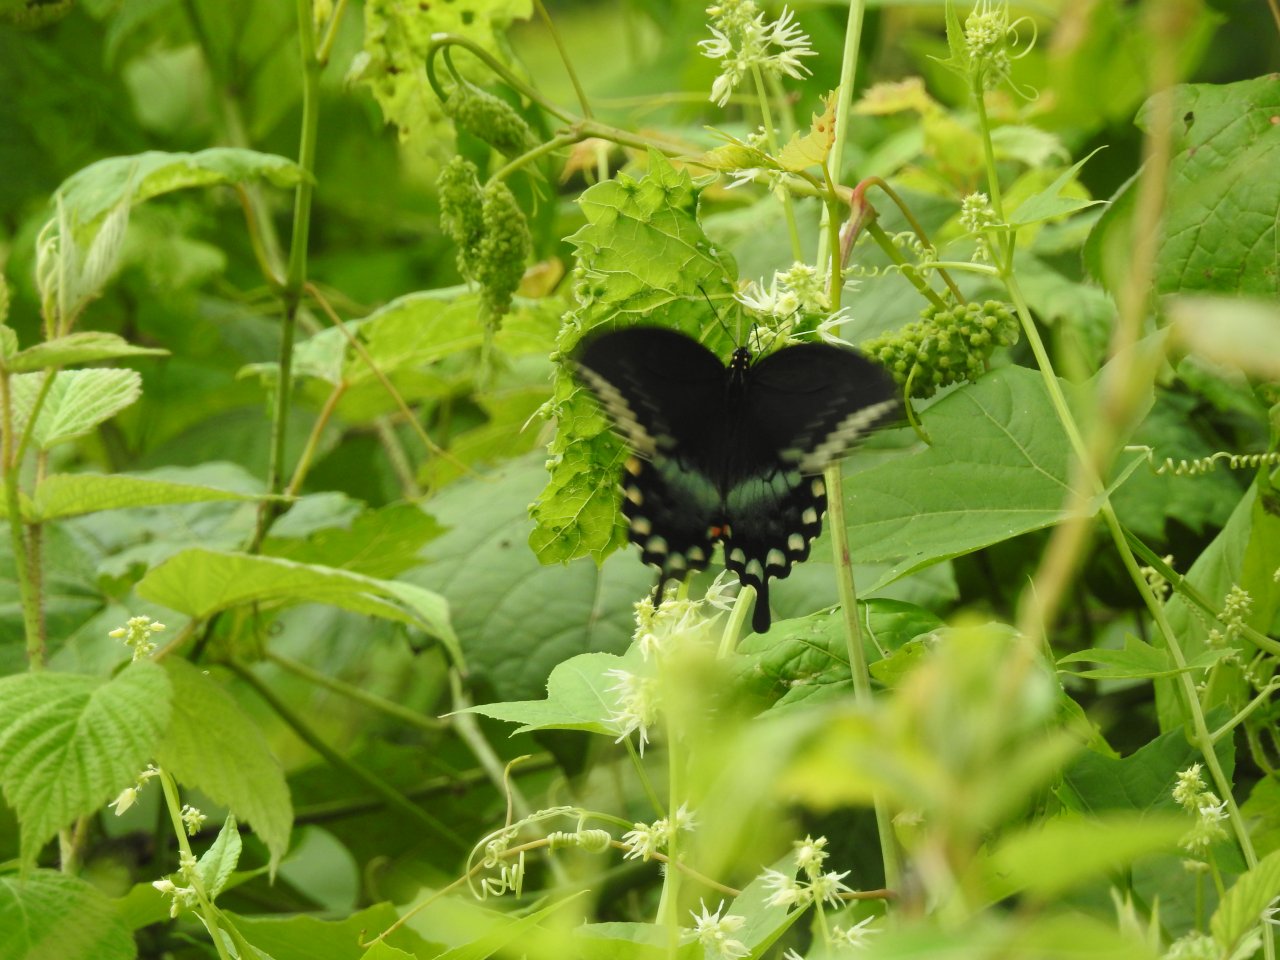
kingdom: Animalia
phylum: Arthropoda
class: Insecta
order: Lepidoptera
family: Papilionidae
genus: Pterourus
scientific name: Pterourus troilus
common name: Spicebush Swallowtail
